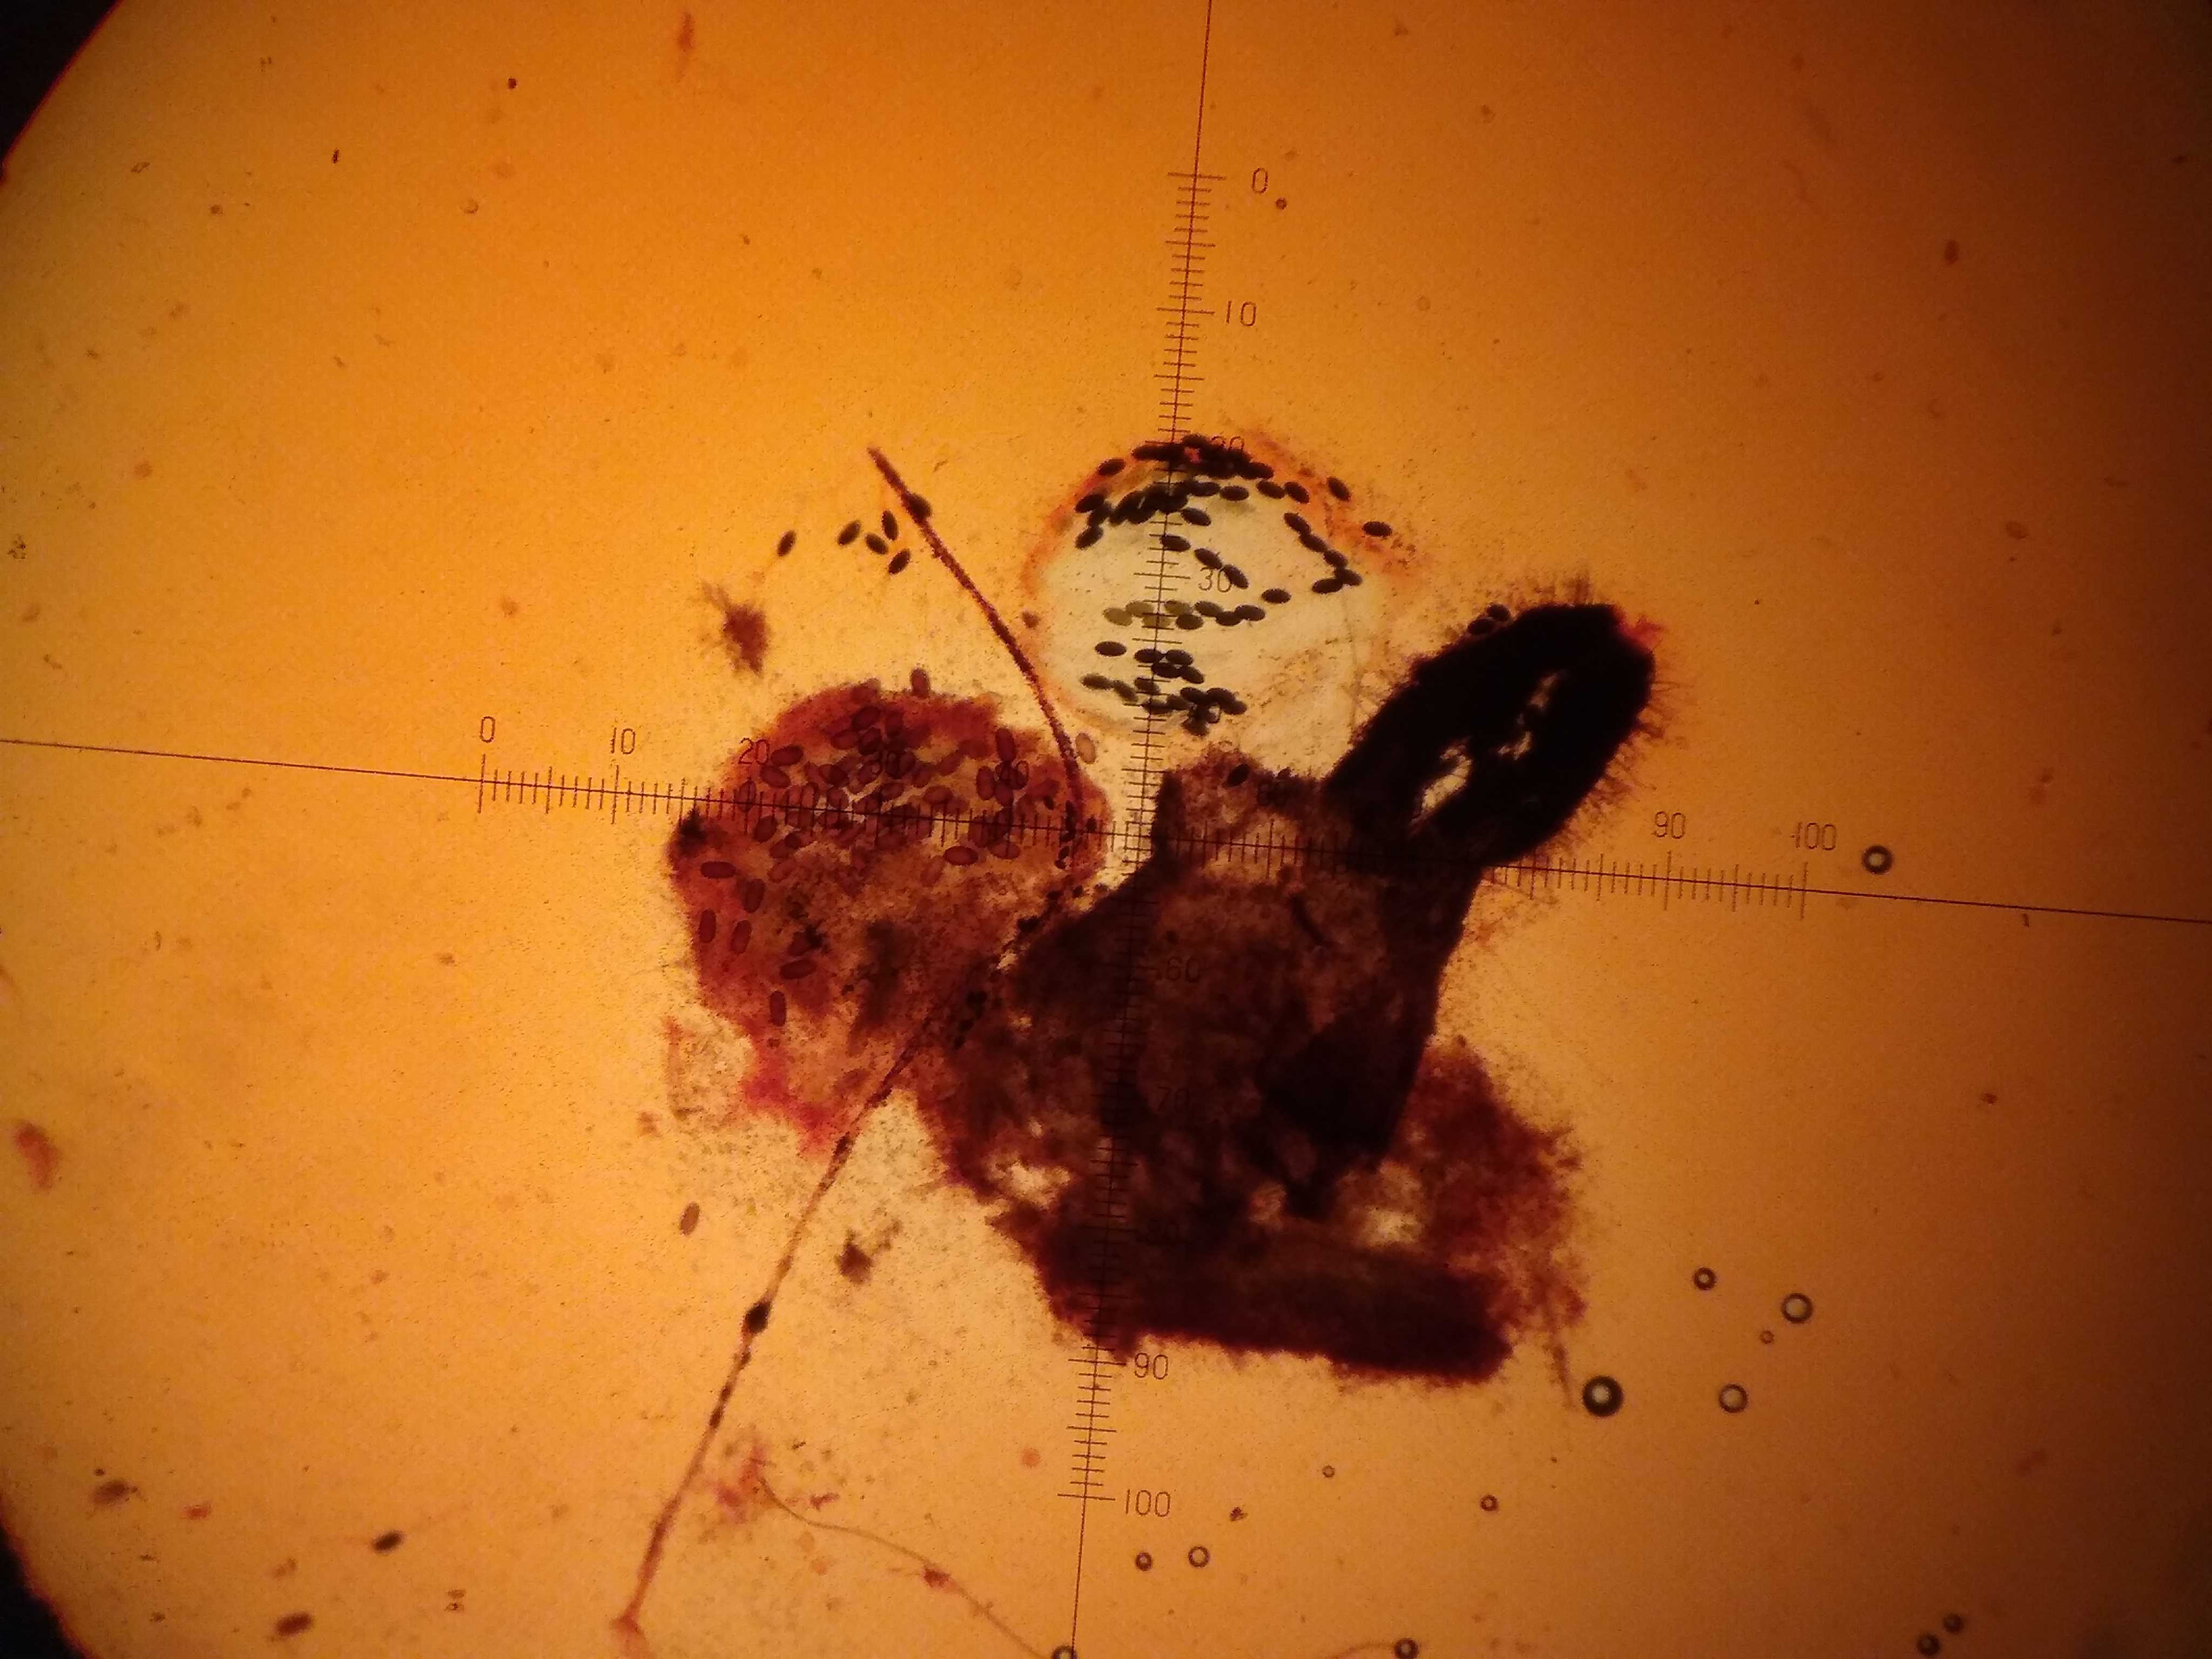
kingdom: Fungi
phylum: Ascomycota
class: Sordariomycetes
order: Sordariales
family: Podosporaceae
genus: Podospora
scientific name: Podospora fimiseda
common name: møg-kernesvamp
